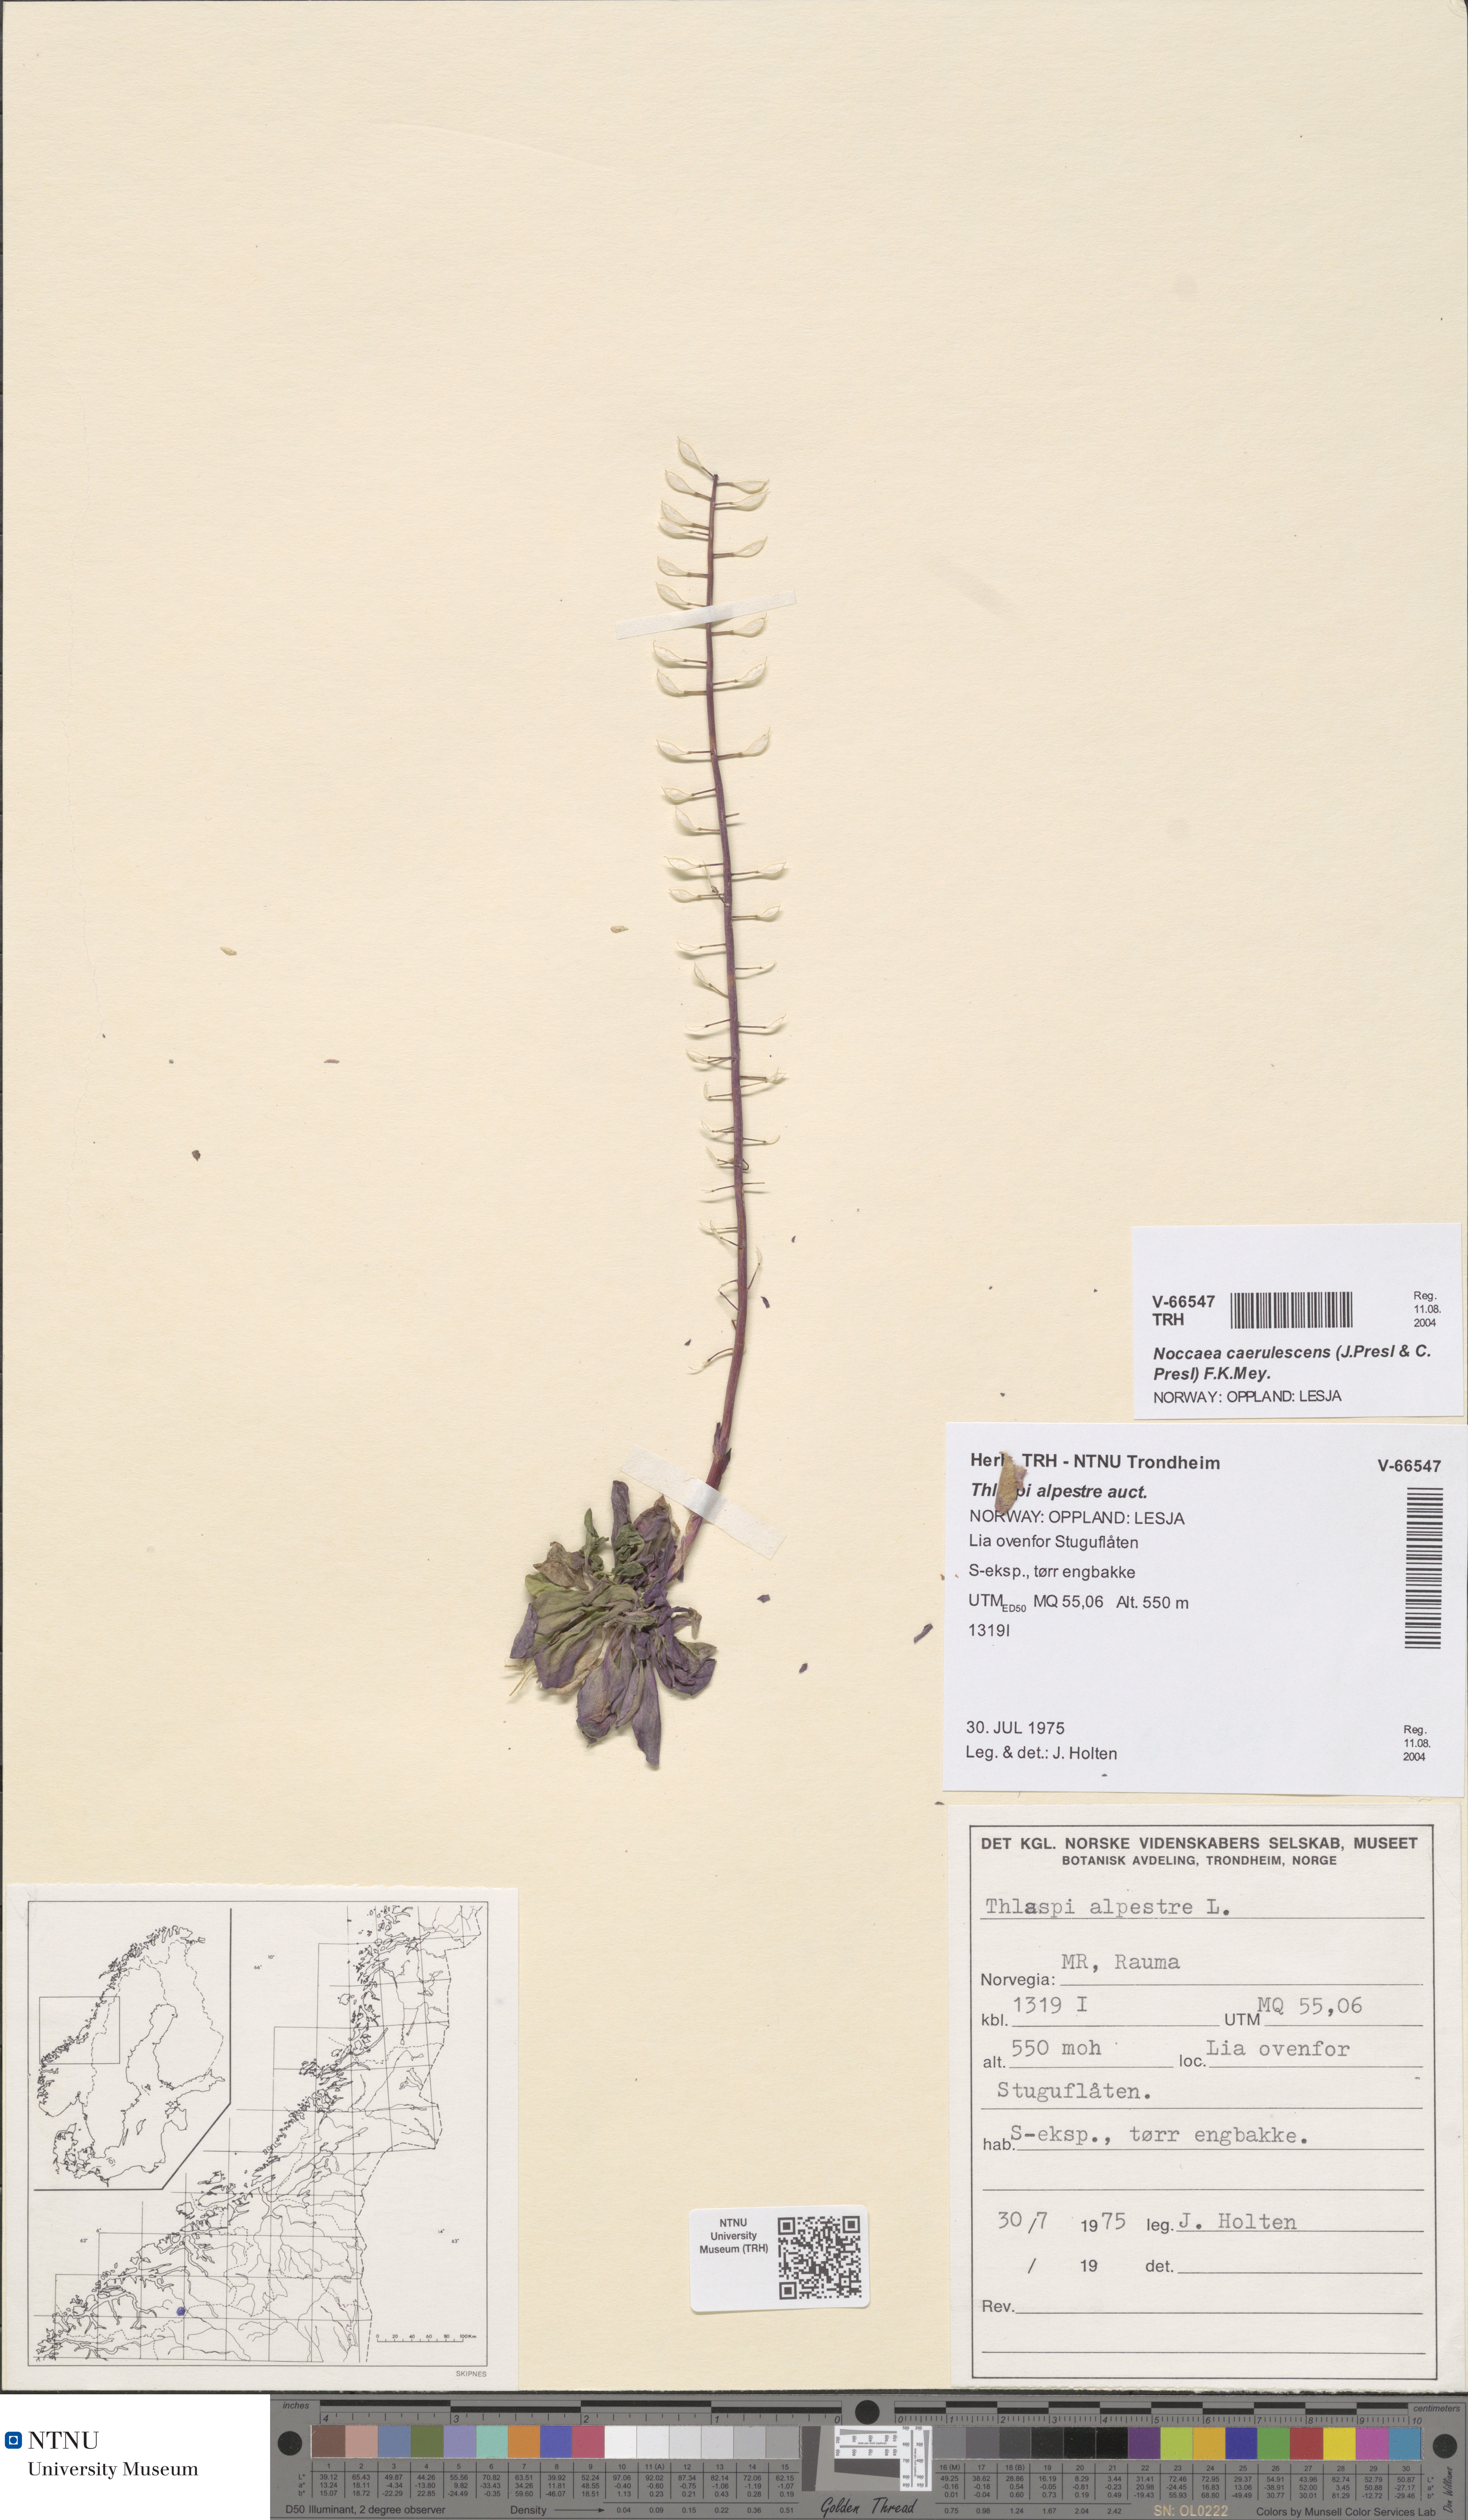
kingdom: Plantae
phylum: Tracheophyta
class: Magnoliopsida
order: Brassicales
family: Brassicaceae
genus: Noccaea
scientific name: Noccaea caerulescens
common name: Alpine pennycress
